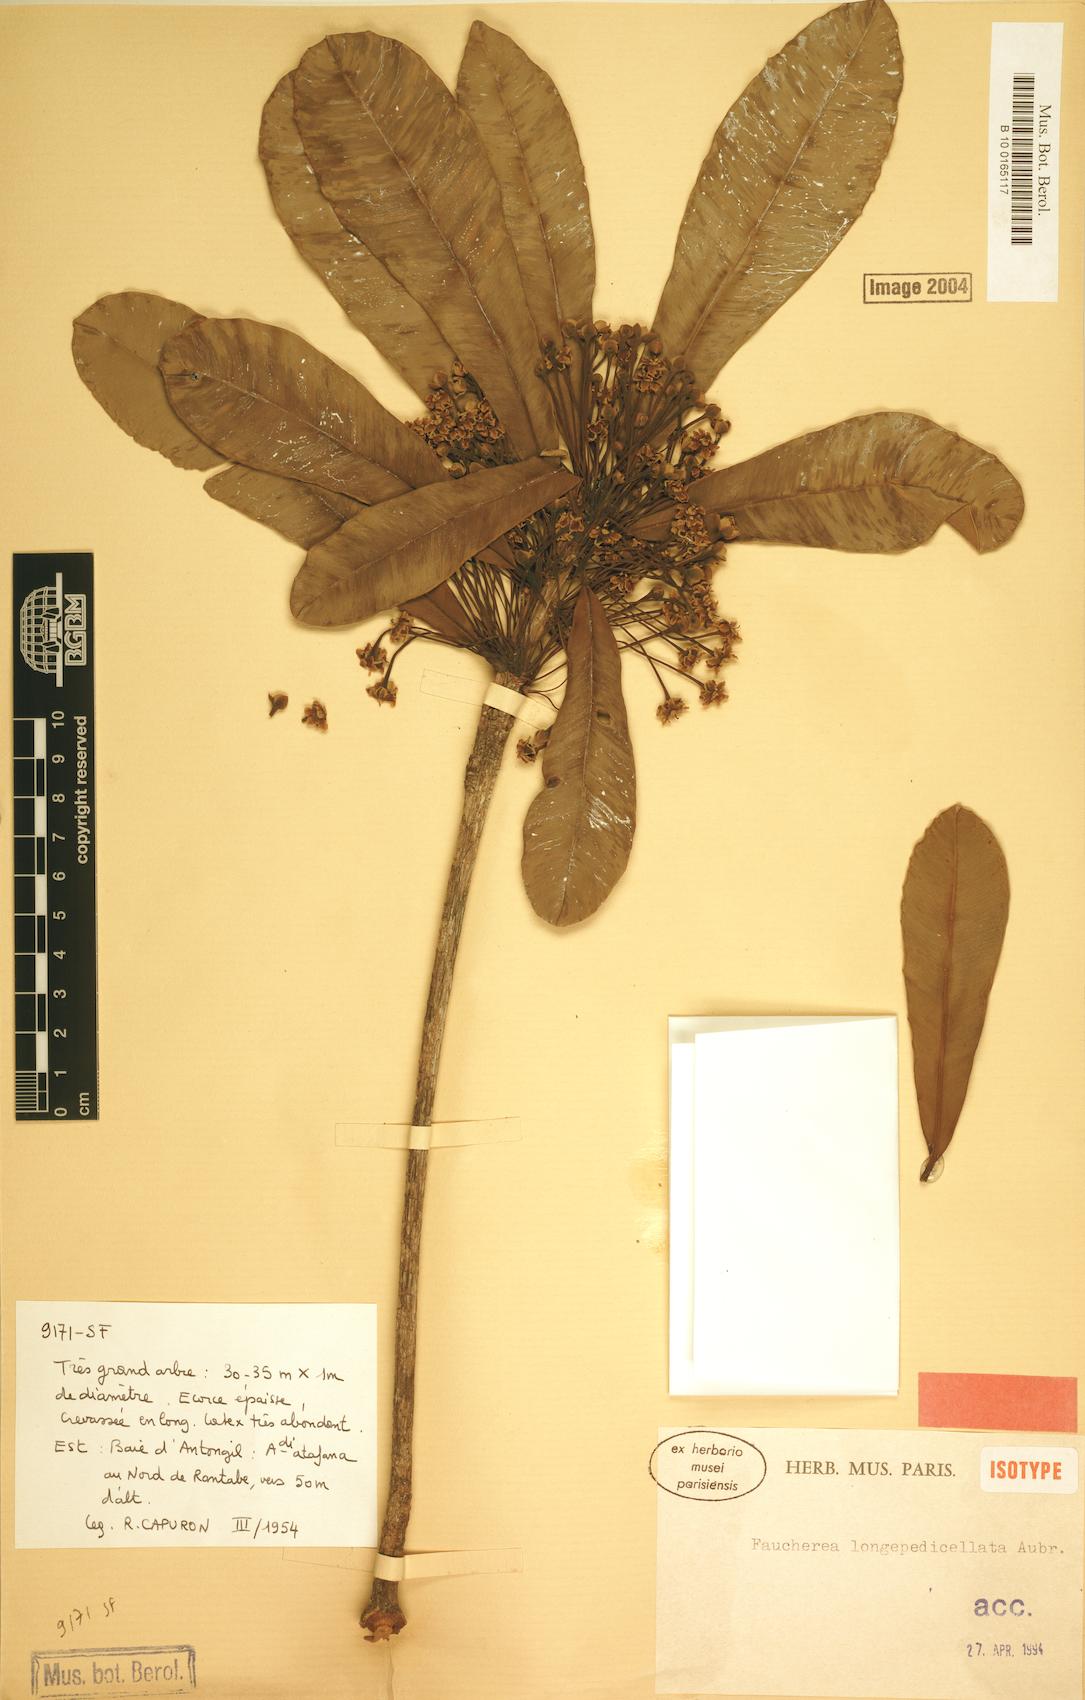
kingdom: Plantae
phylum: Tracheophyta
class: Magnoliopsida
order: Ericales
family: Sapotaceae
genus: Faucherea
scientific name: Faucherea longepedicellata
